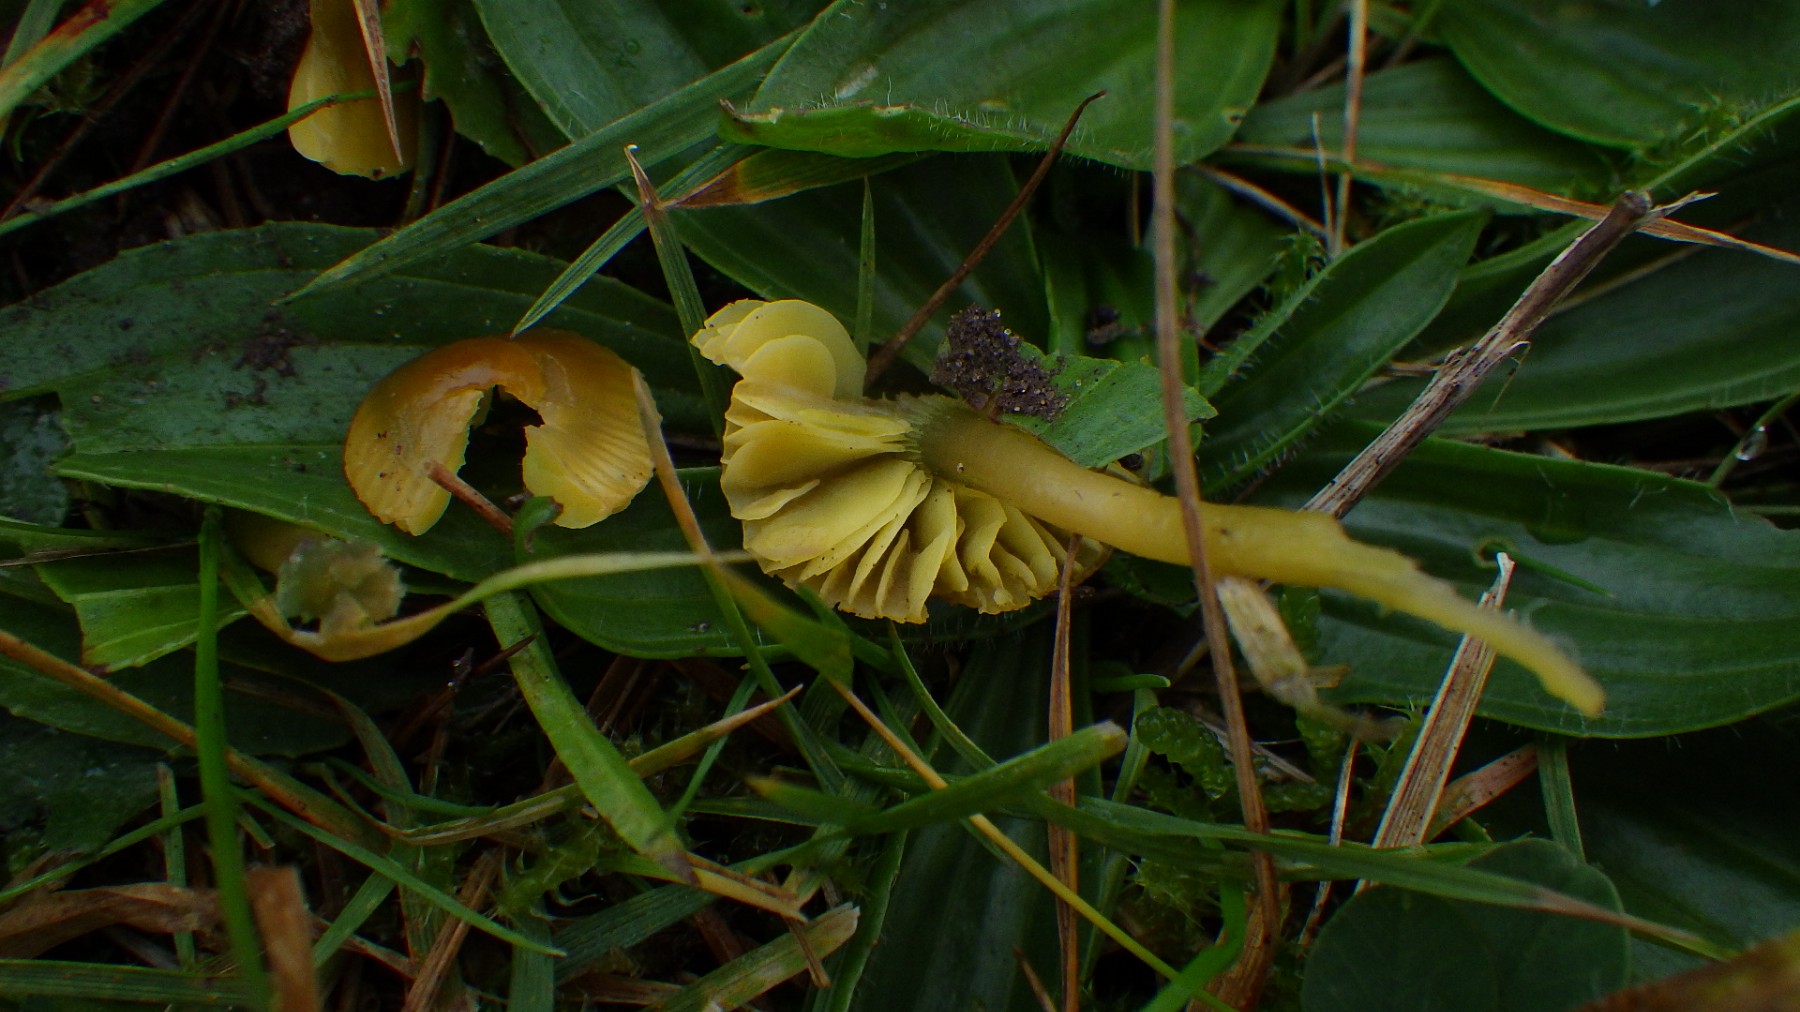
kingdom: Fungi
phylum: Basidiomycota
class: Agaricomycetes
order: Agaricales
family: Hygrophoraceae
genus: Gliophorus
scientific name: Gliophorus psittacinus
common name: papegøje-vokshat
